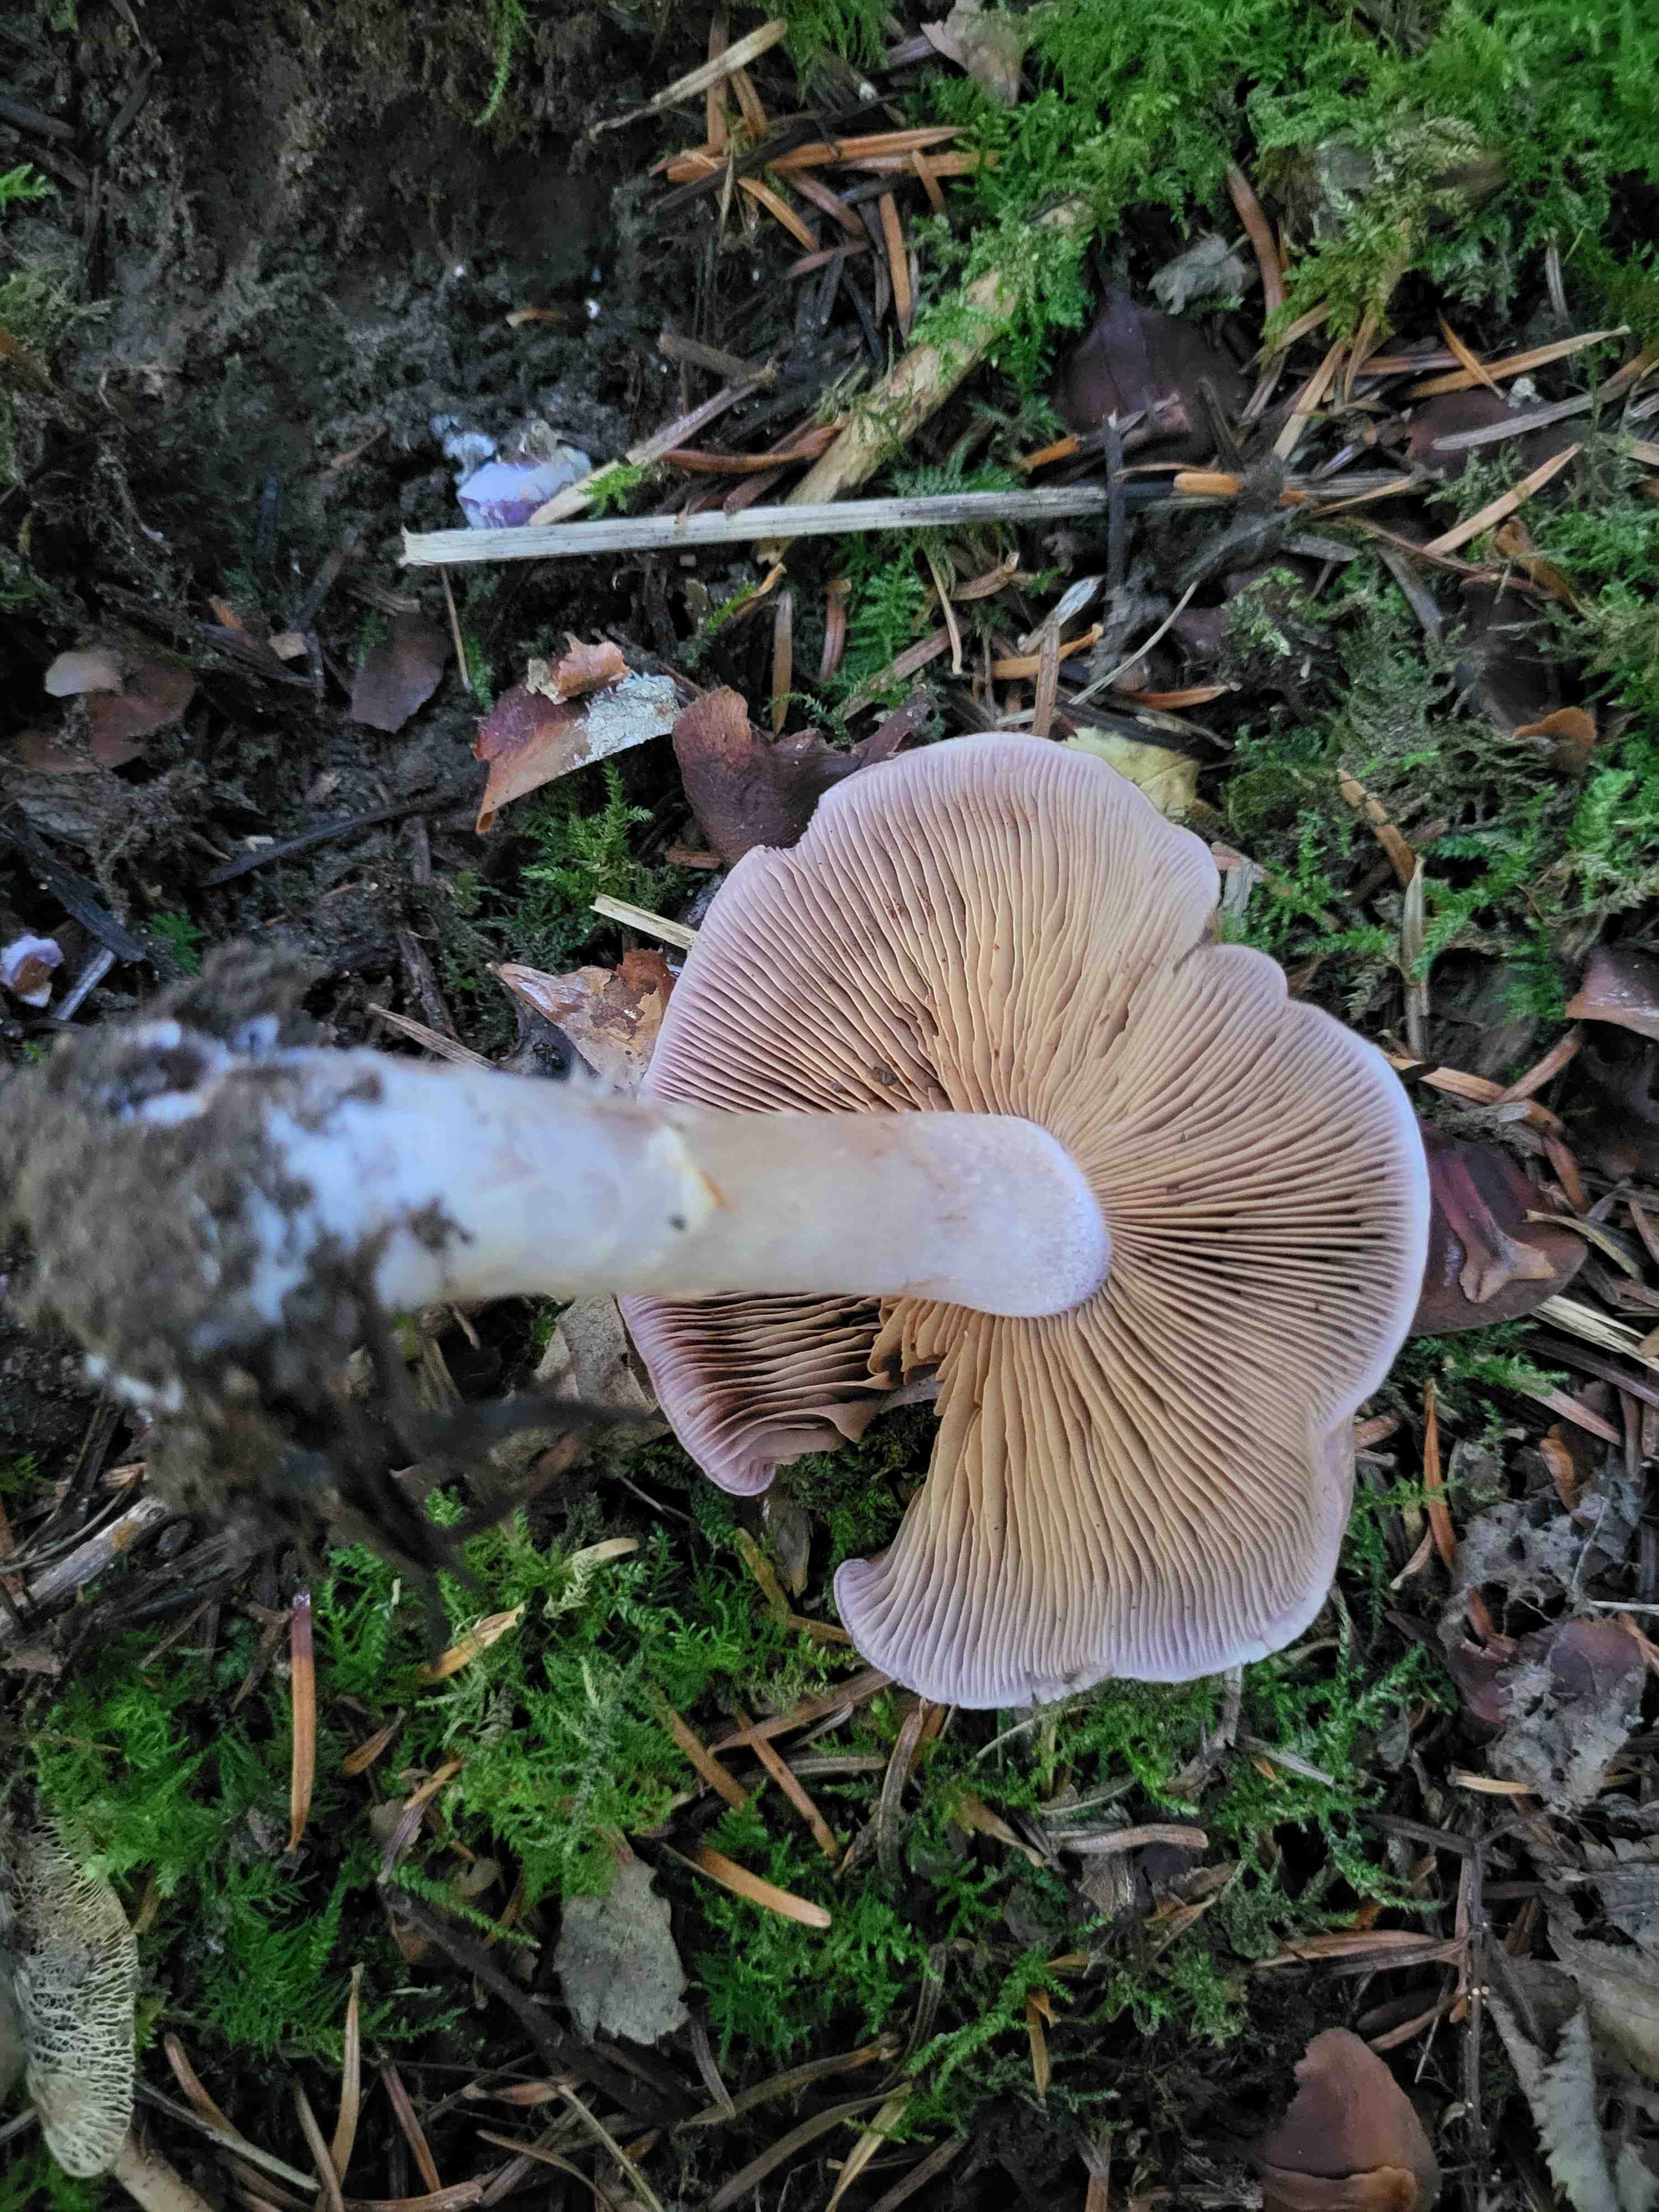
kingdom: Fungi
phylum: Basidiomycota
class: Agaricomycetes
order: Agaricales
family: Cortinariaceae
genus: Cortinarius
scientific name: Cortinarius
